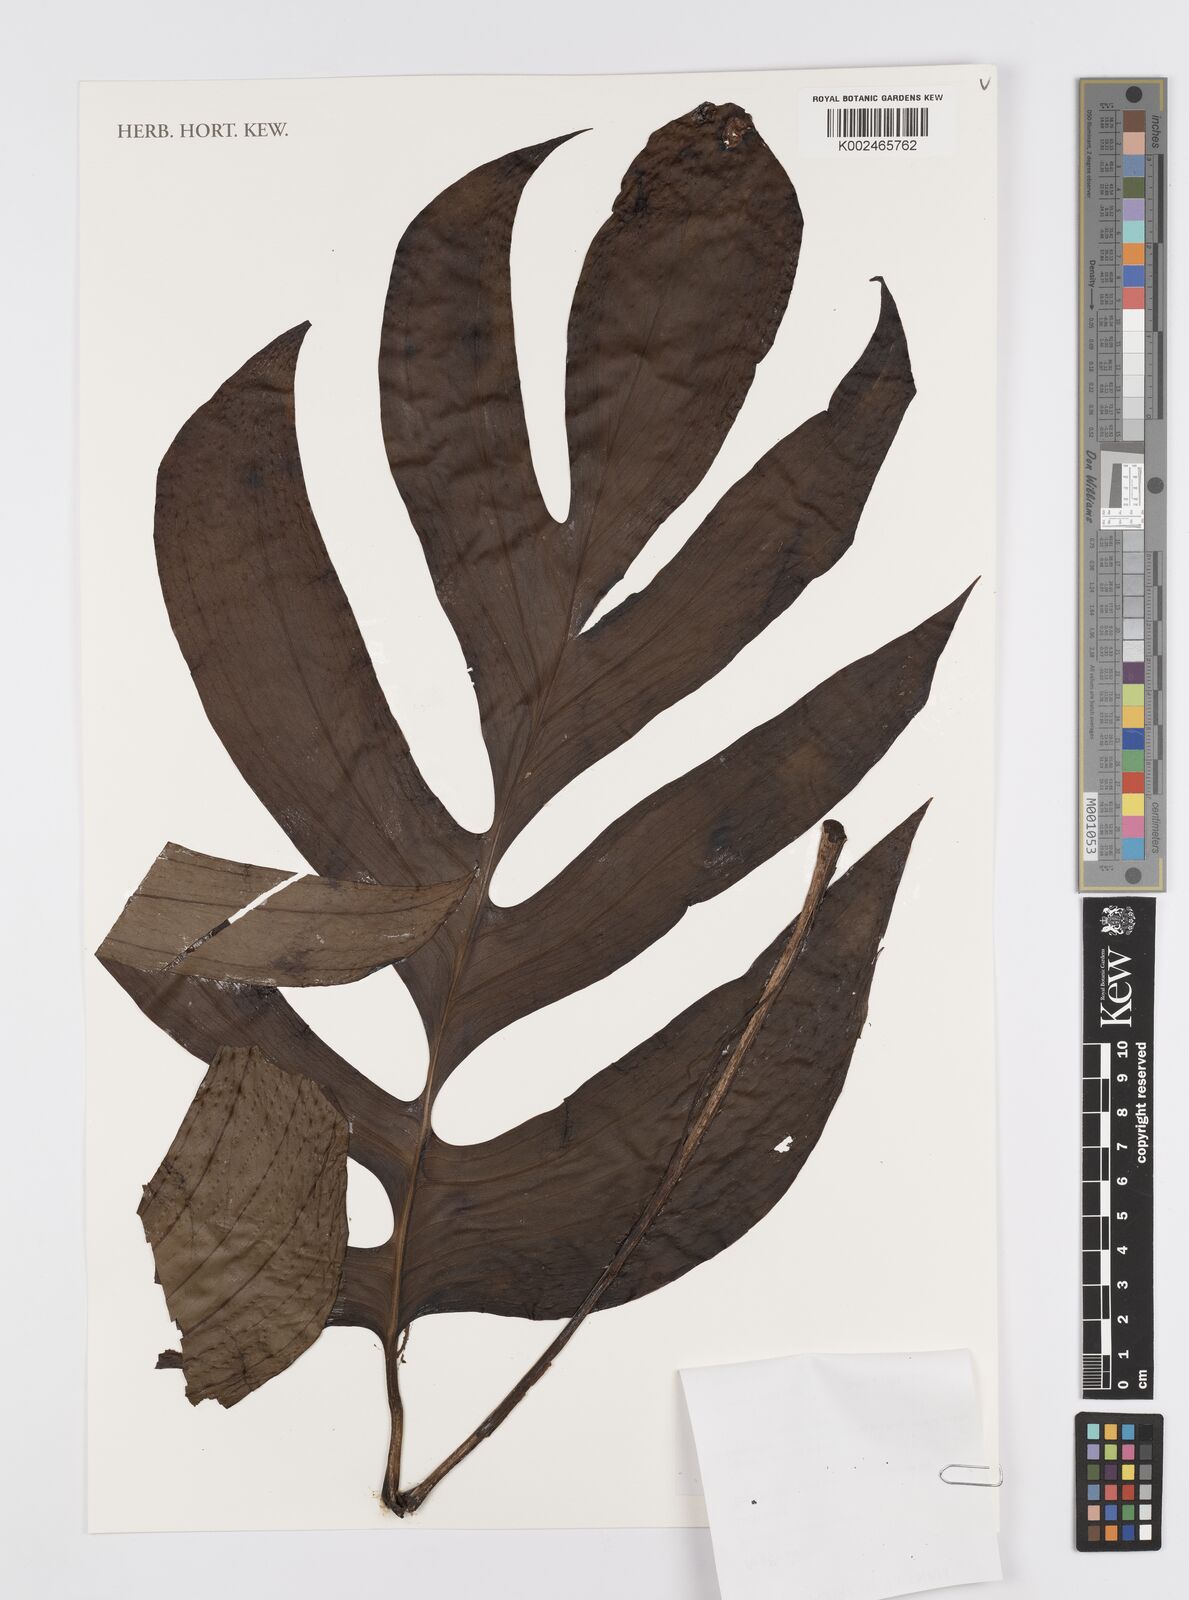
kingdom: Plantae
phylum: Tracheophyta
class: Liliopsida
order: Alismatales
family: Araceae
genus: Rhaphidophora
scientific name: Rhaphidophora
